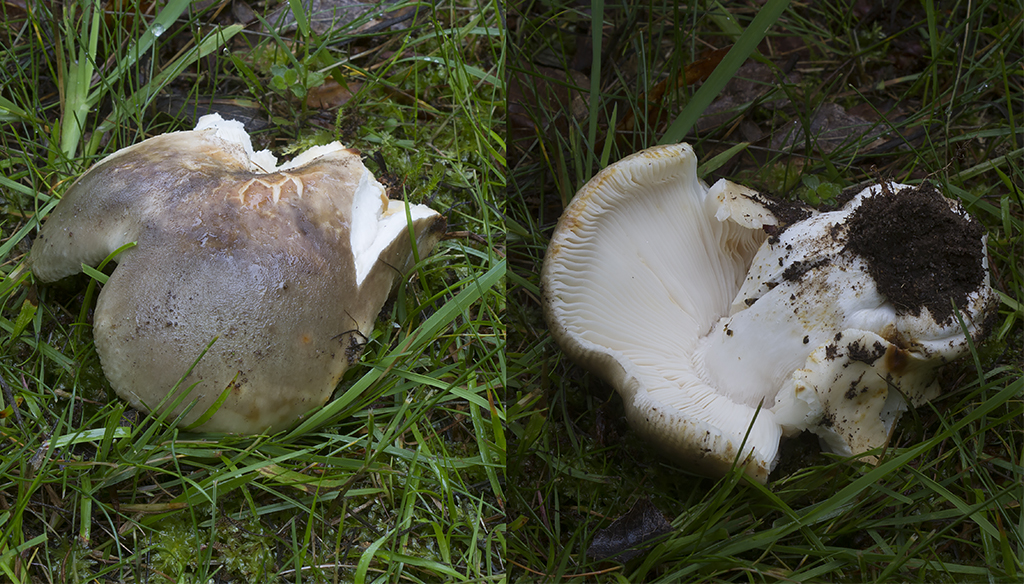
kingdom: Fungi
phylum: Basidiomycota
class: Agaricomycetes
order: Russulales
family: Russulaceae
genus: Russula
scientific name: Russula heterophylla
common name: gaffelbladet skørhat
